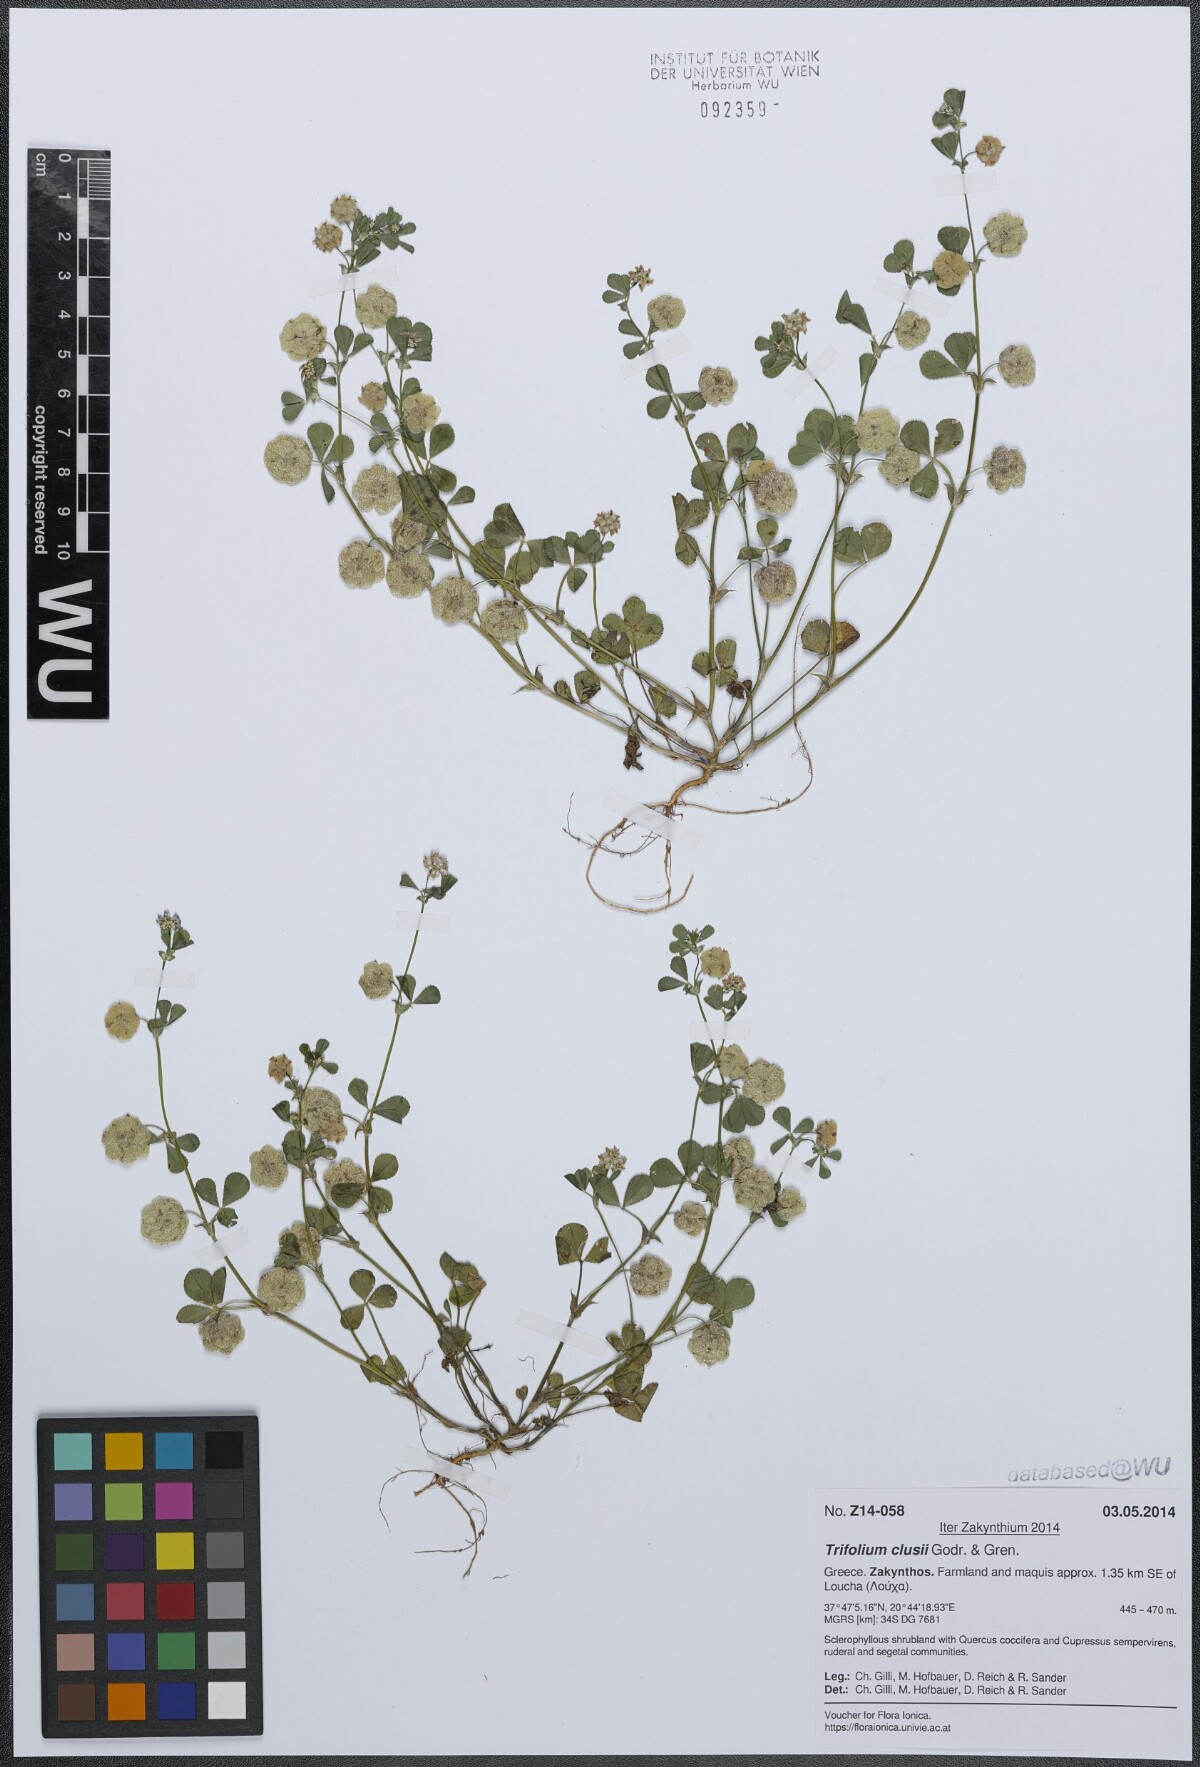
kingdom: Plantae
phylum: Tracheophyta
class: Magnoliopsida
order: Fabales
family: Fabaceae
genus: Trifolium
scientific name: Trifolium clusii
